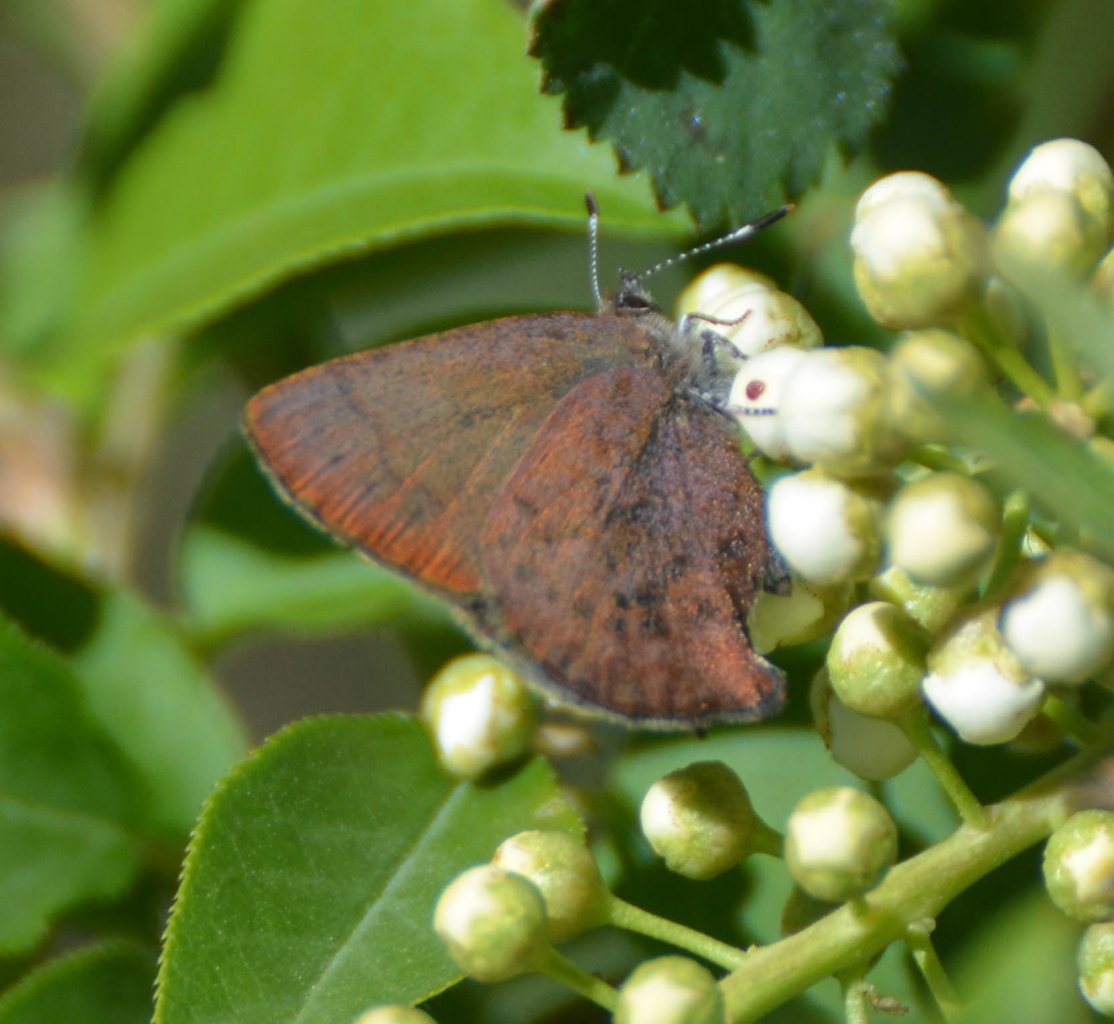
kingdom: Animalia
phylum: Arthropoda
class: Insecta
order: Lepidoptera
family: Lycaenidae
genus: Incisalia
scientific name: Incisalia irioides
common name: Brown Elfin
